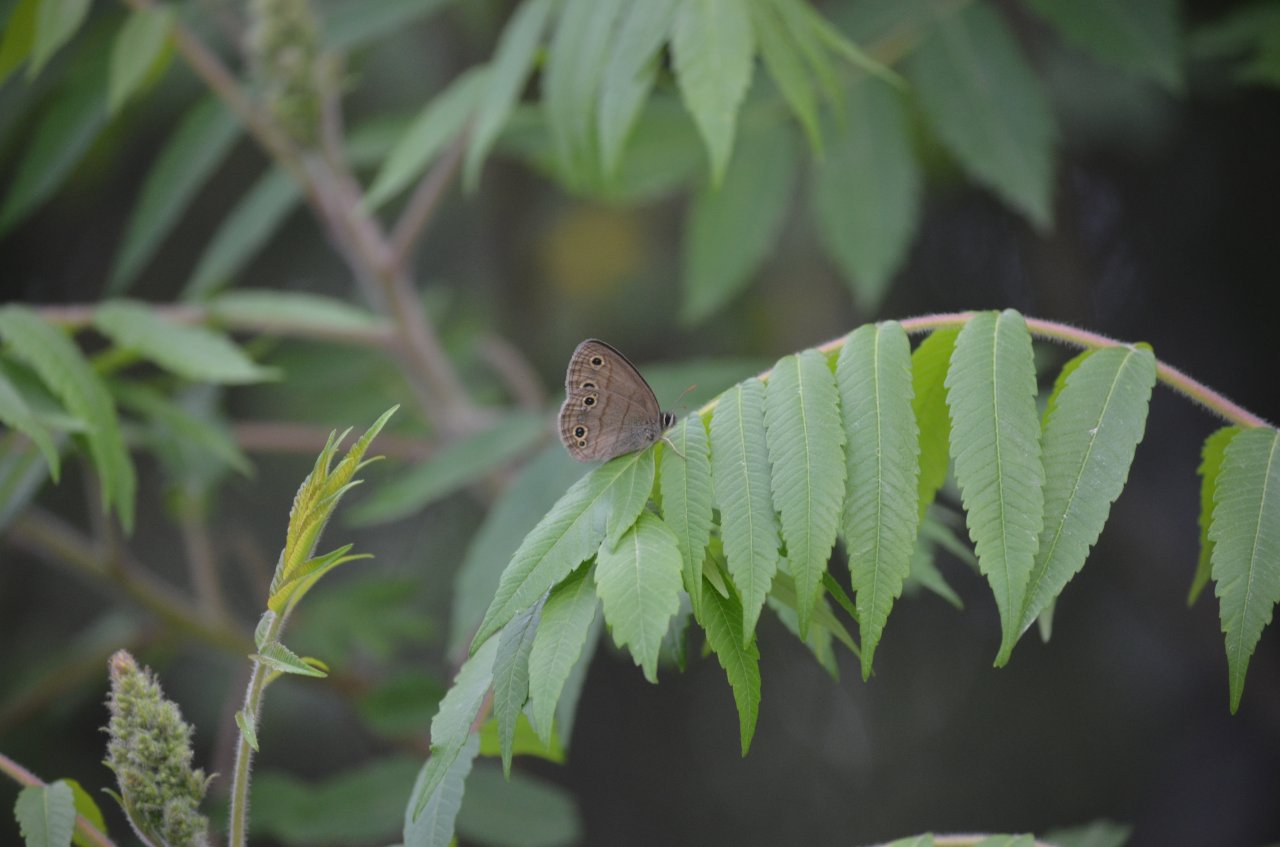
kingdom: Animalia
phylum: Arthropoda
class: Insecta
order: Lepidoptera
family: Nymphalidae
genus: Euptychia
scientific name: Euptychia cymela
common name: Little Wood Satyr
